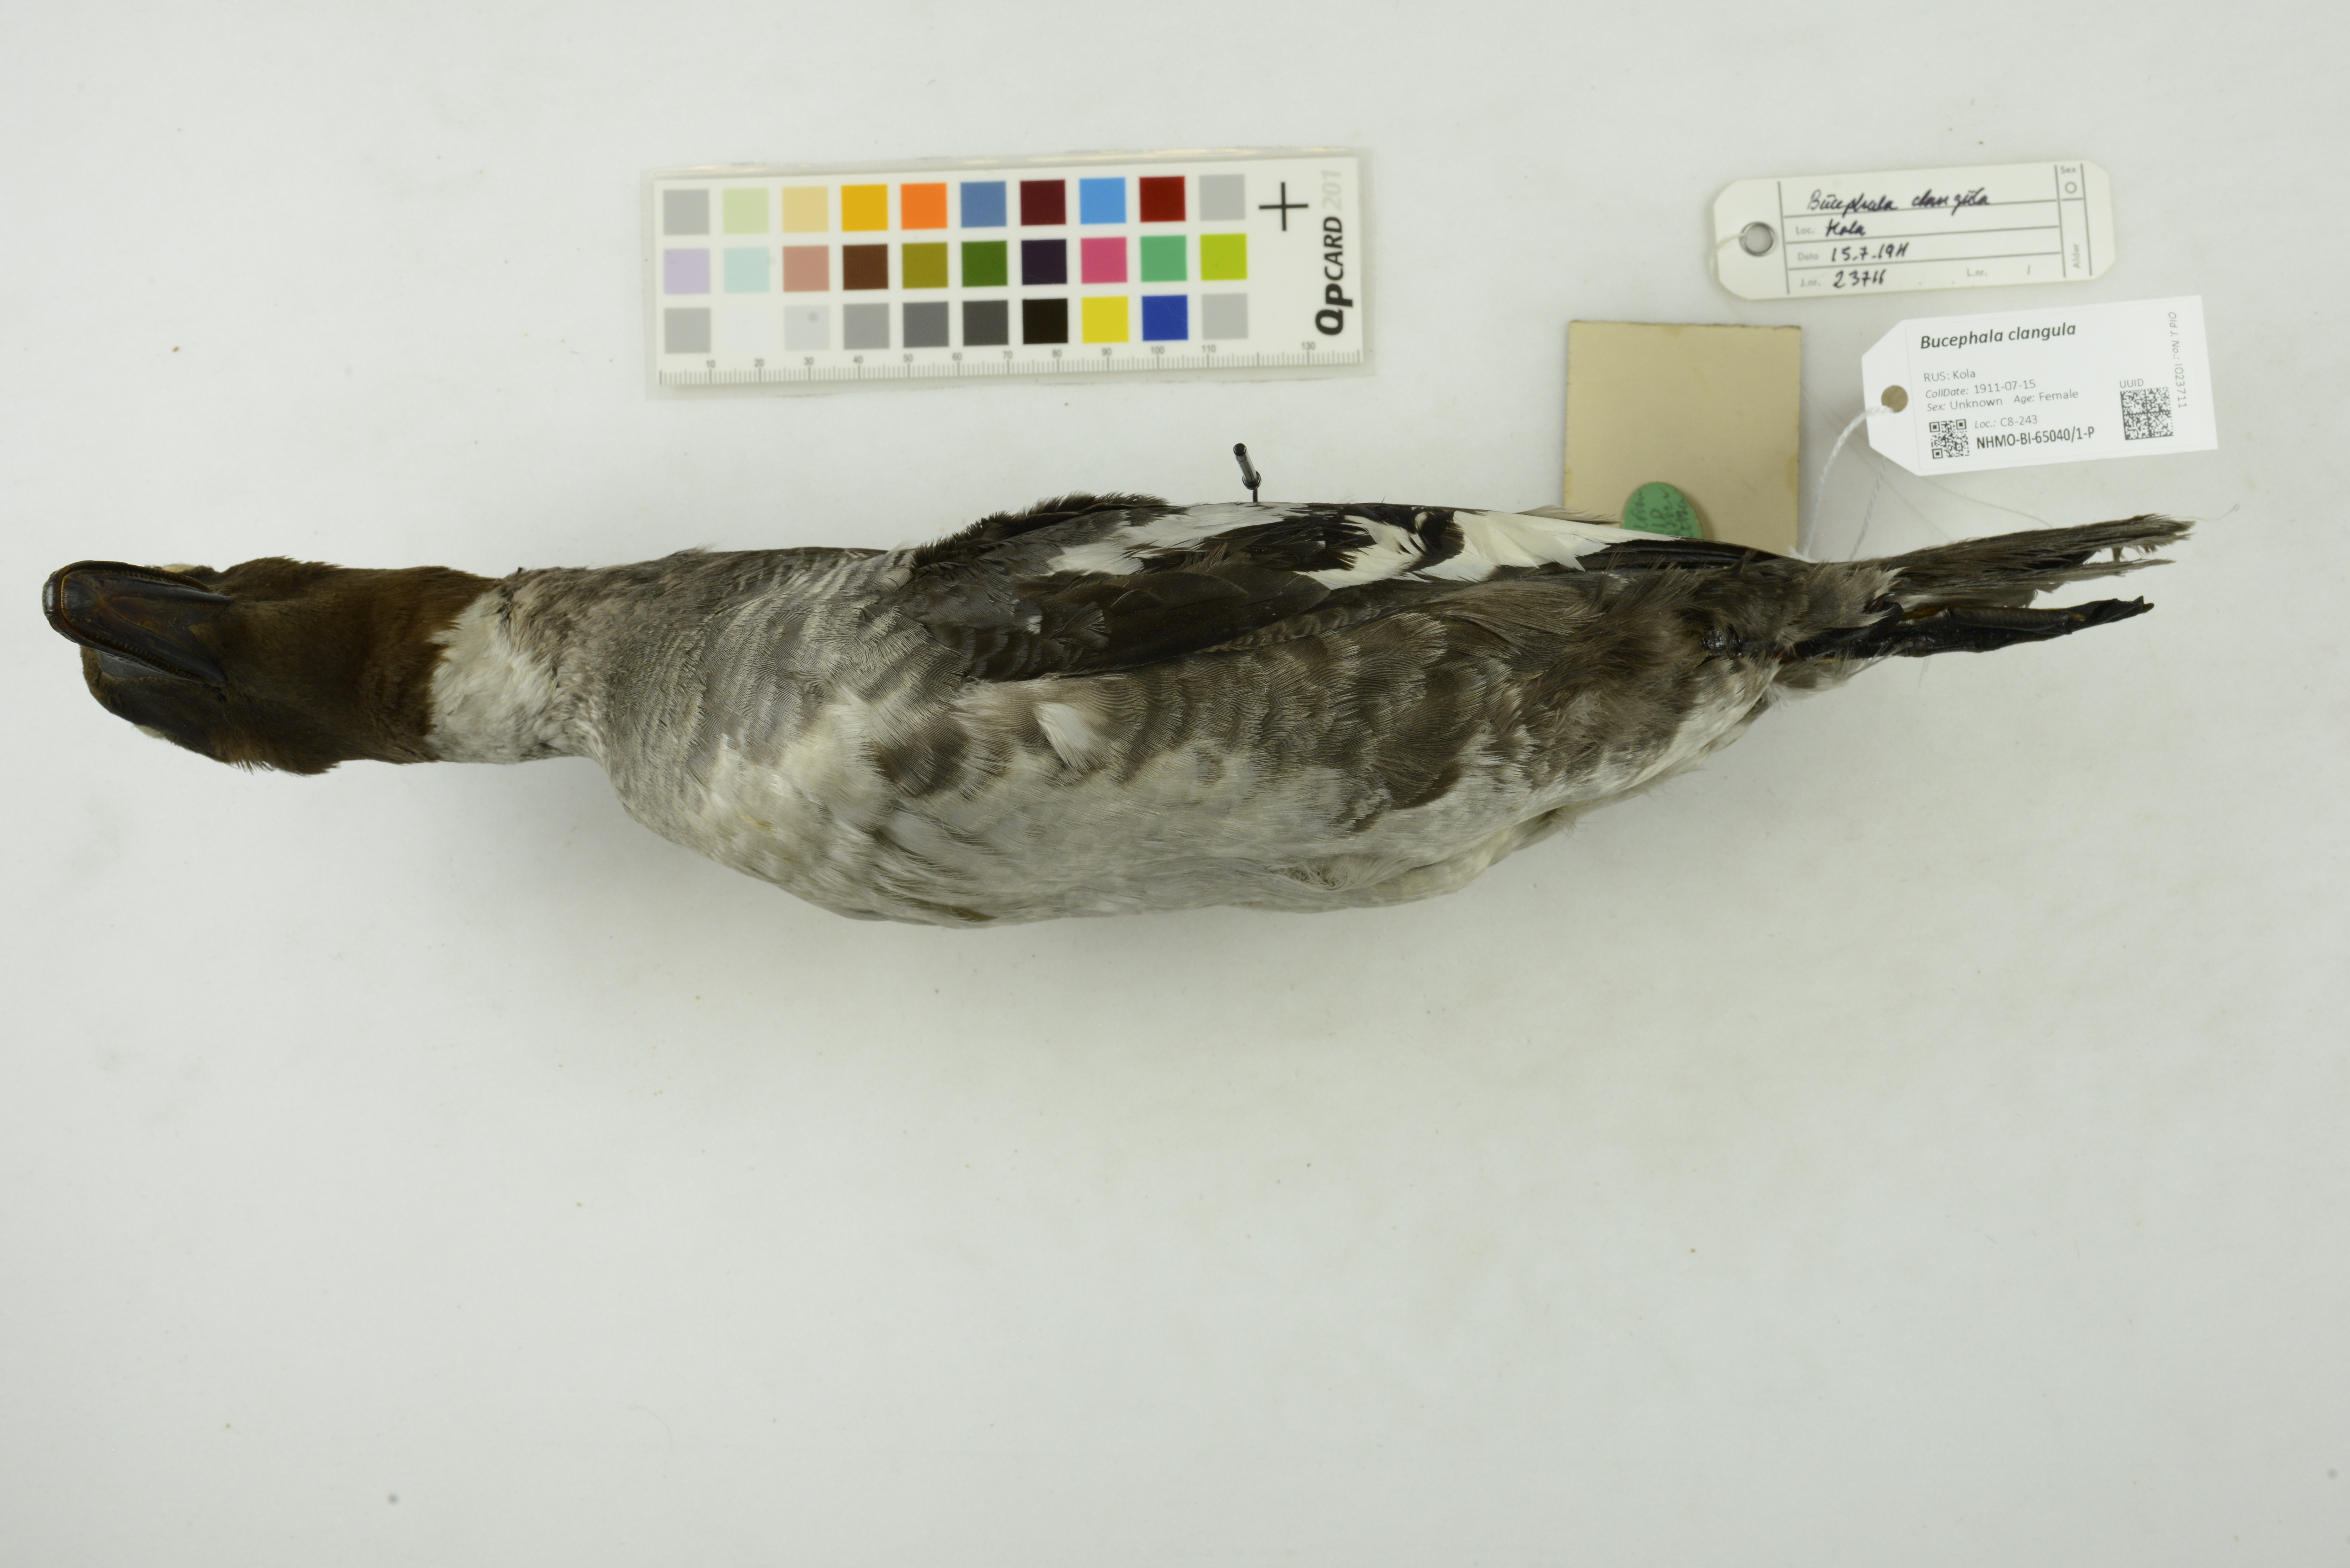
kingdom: Animalia
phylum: Chordata
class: Aves
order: Anseriformes
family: Anatidae
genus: Bucephala
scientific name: Bucephala clangula
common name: Common goldeneye
